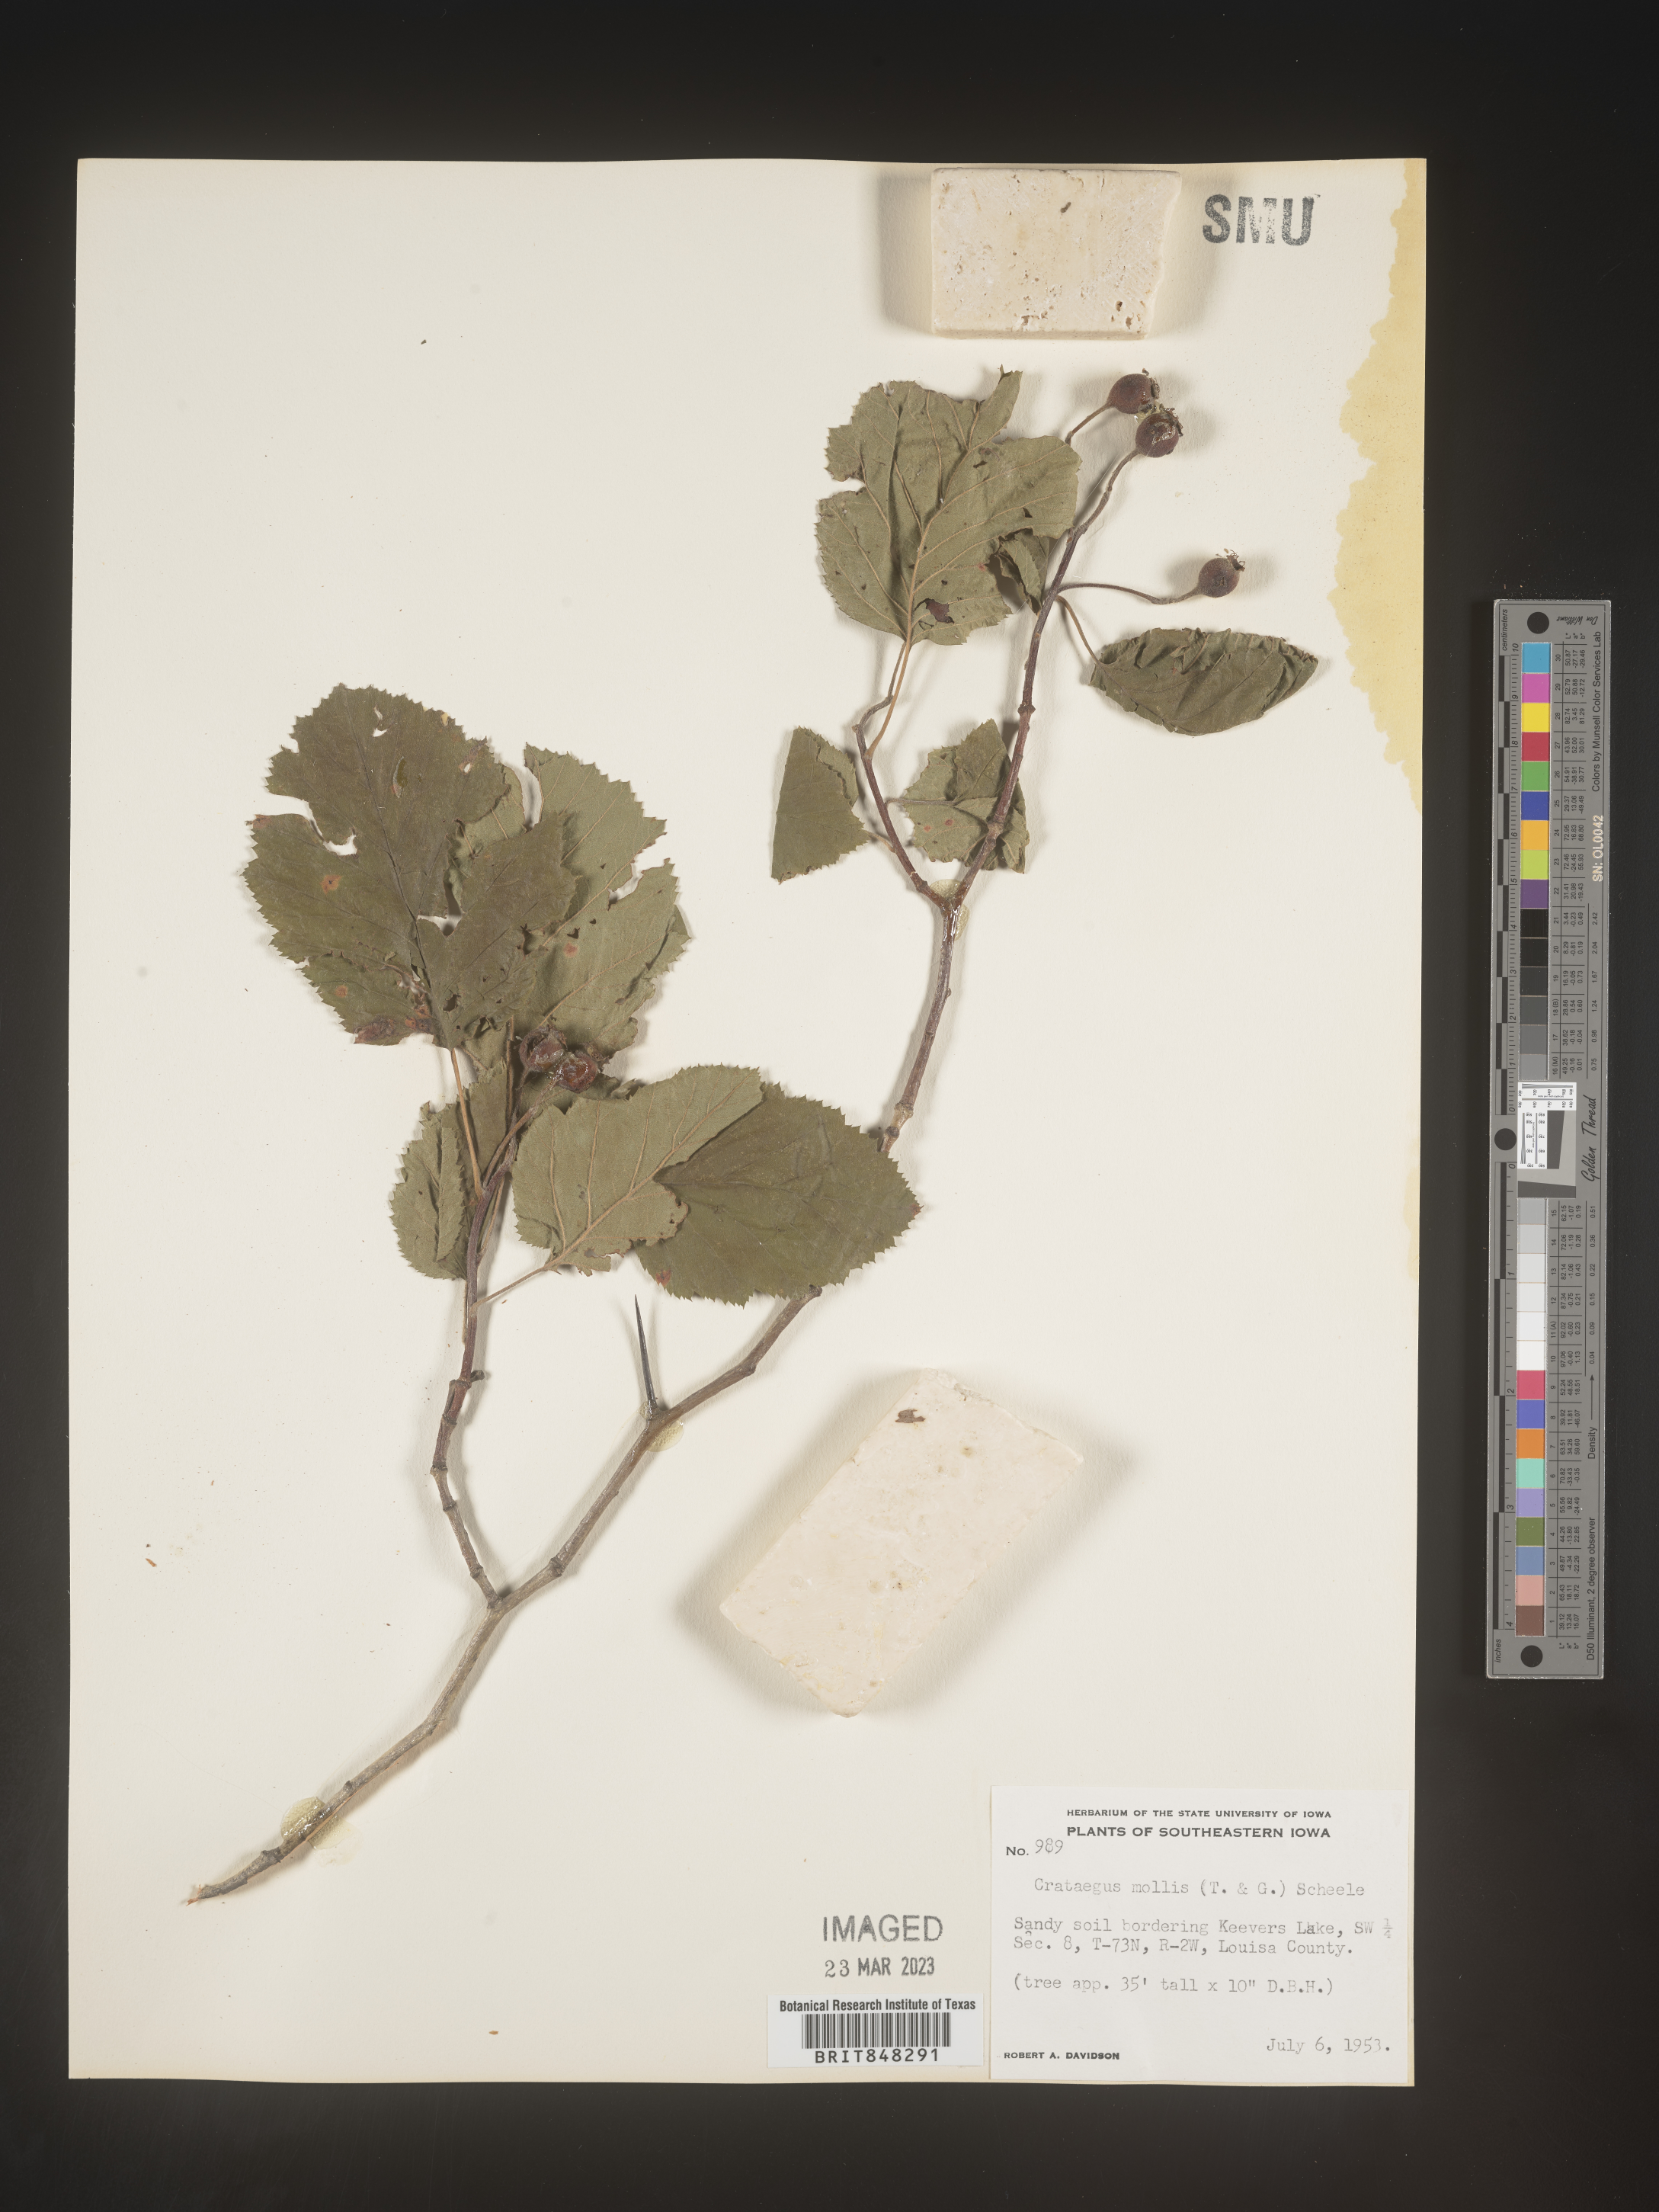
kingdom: Plantae
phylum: Tracheophyta
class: Magnoliopsida
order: Rosales
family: Rosaceae
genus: Crataegus
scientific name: Crataegus mollis
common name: Downy hawthorn
